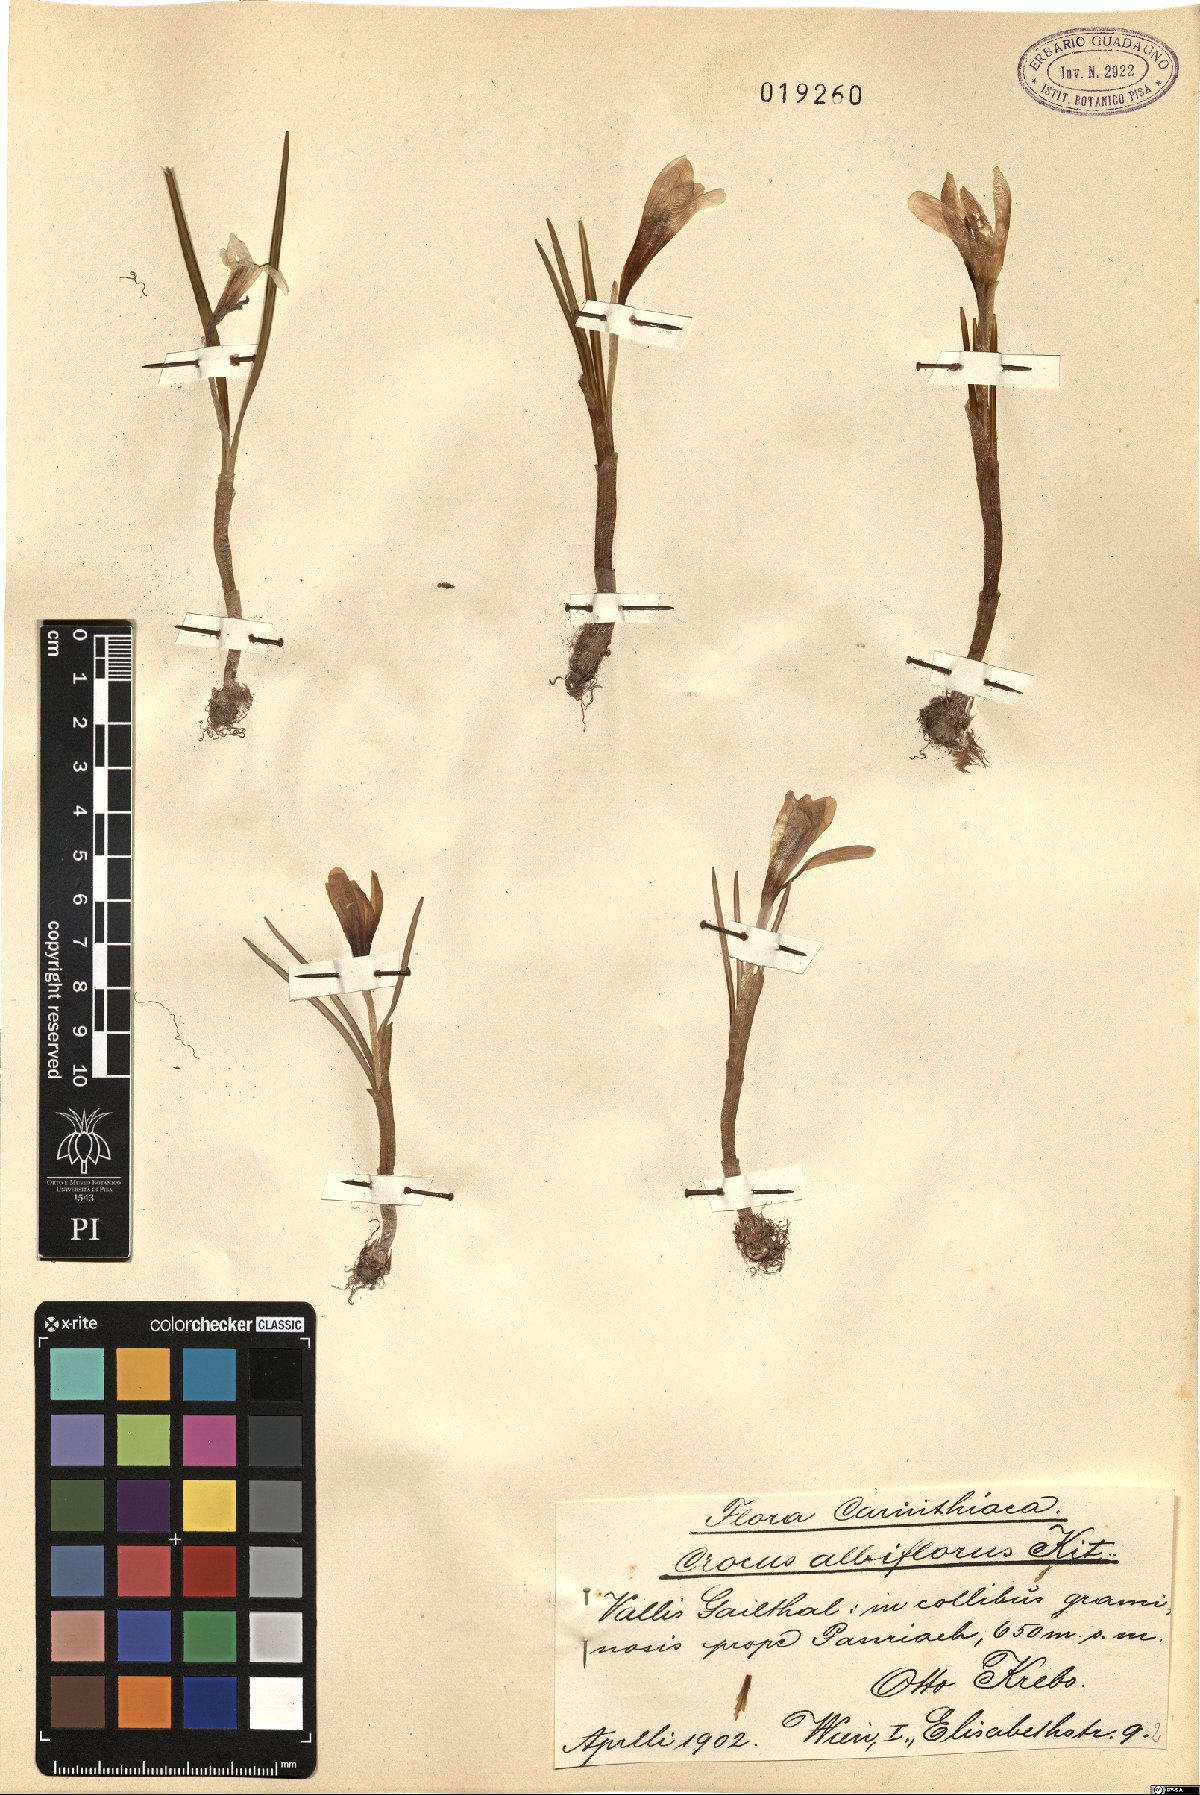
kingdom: Plantae
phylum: Tracheophyta
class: Liliopsida
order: Asparagales
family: Iridaceae
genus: Crocus
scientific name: Crocus vernus
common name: Spring crocus
